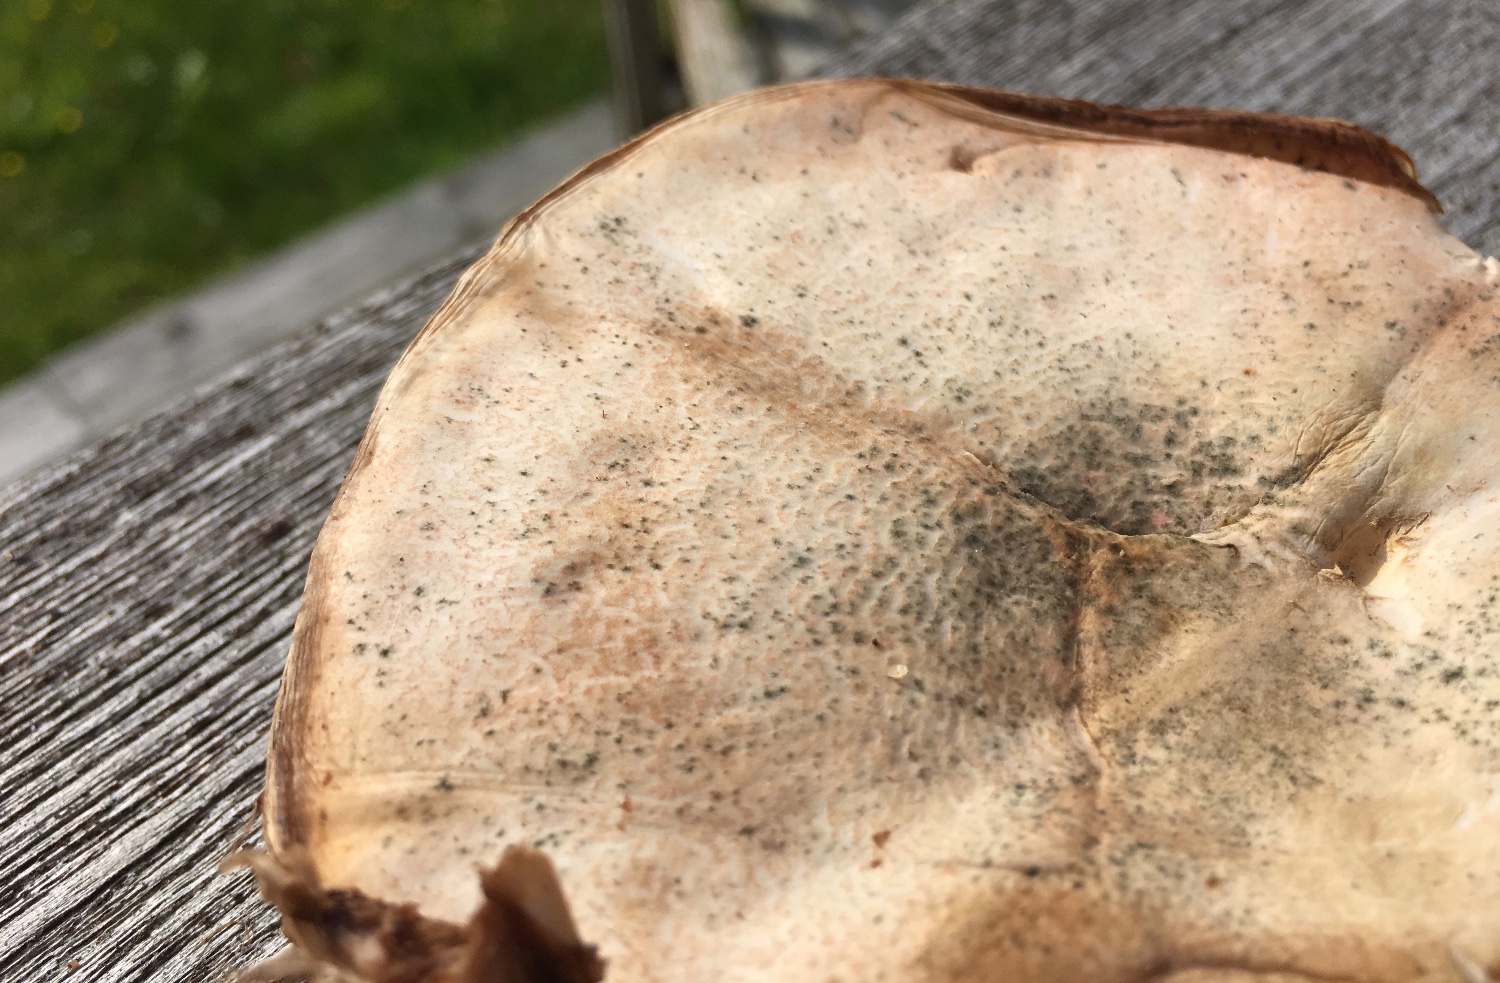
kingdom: Fungi
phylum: Basidiomycota
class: Agaricomycetes
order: Agaricales
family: Agaricaceae
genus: Leucoagaricus
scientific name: Leucoagaricus leucothites
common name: rosabladet silkehat
